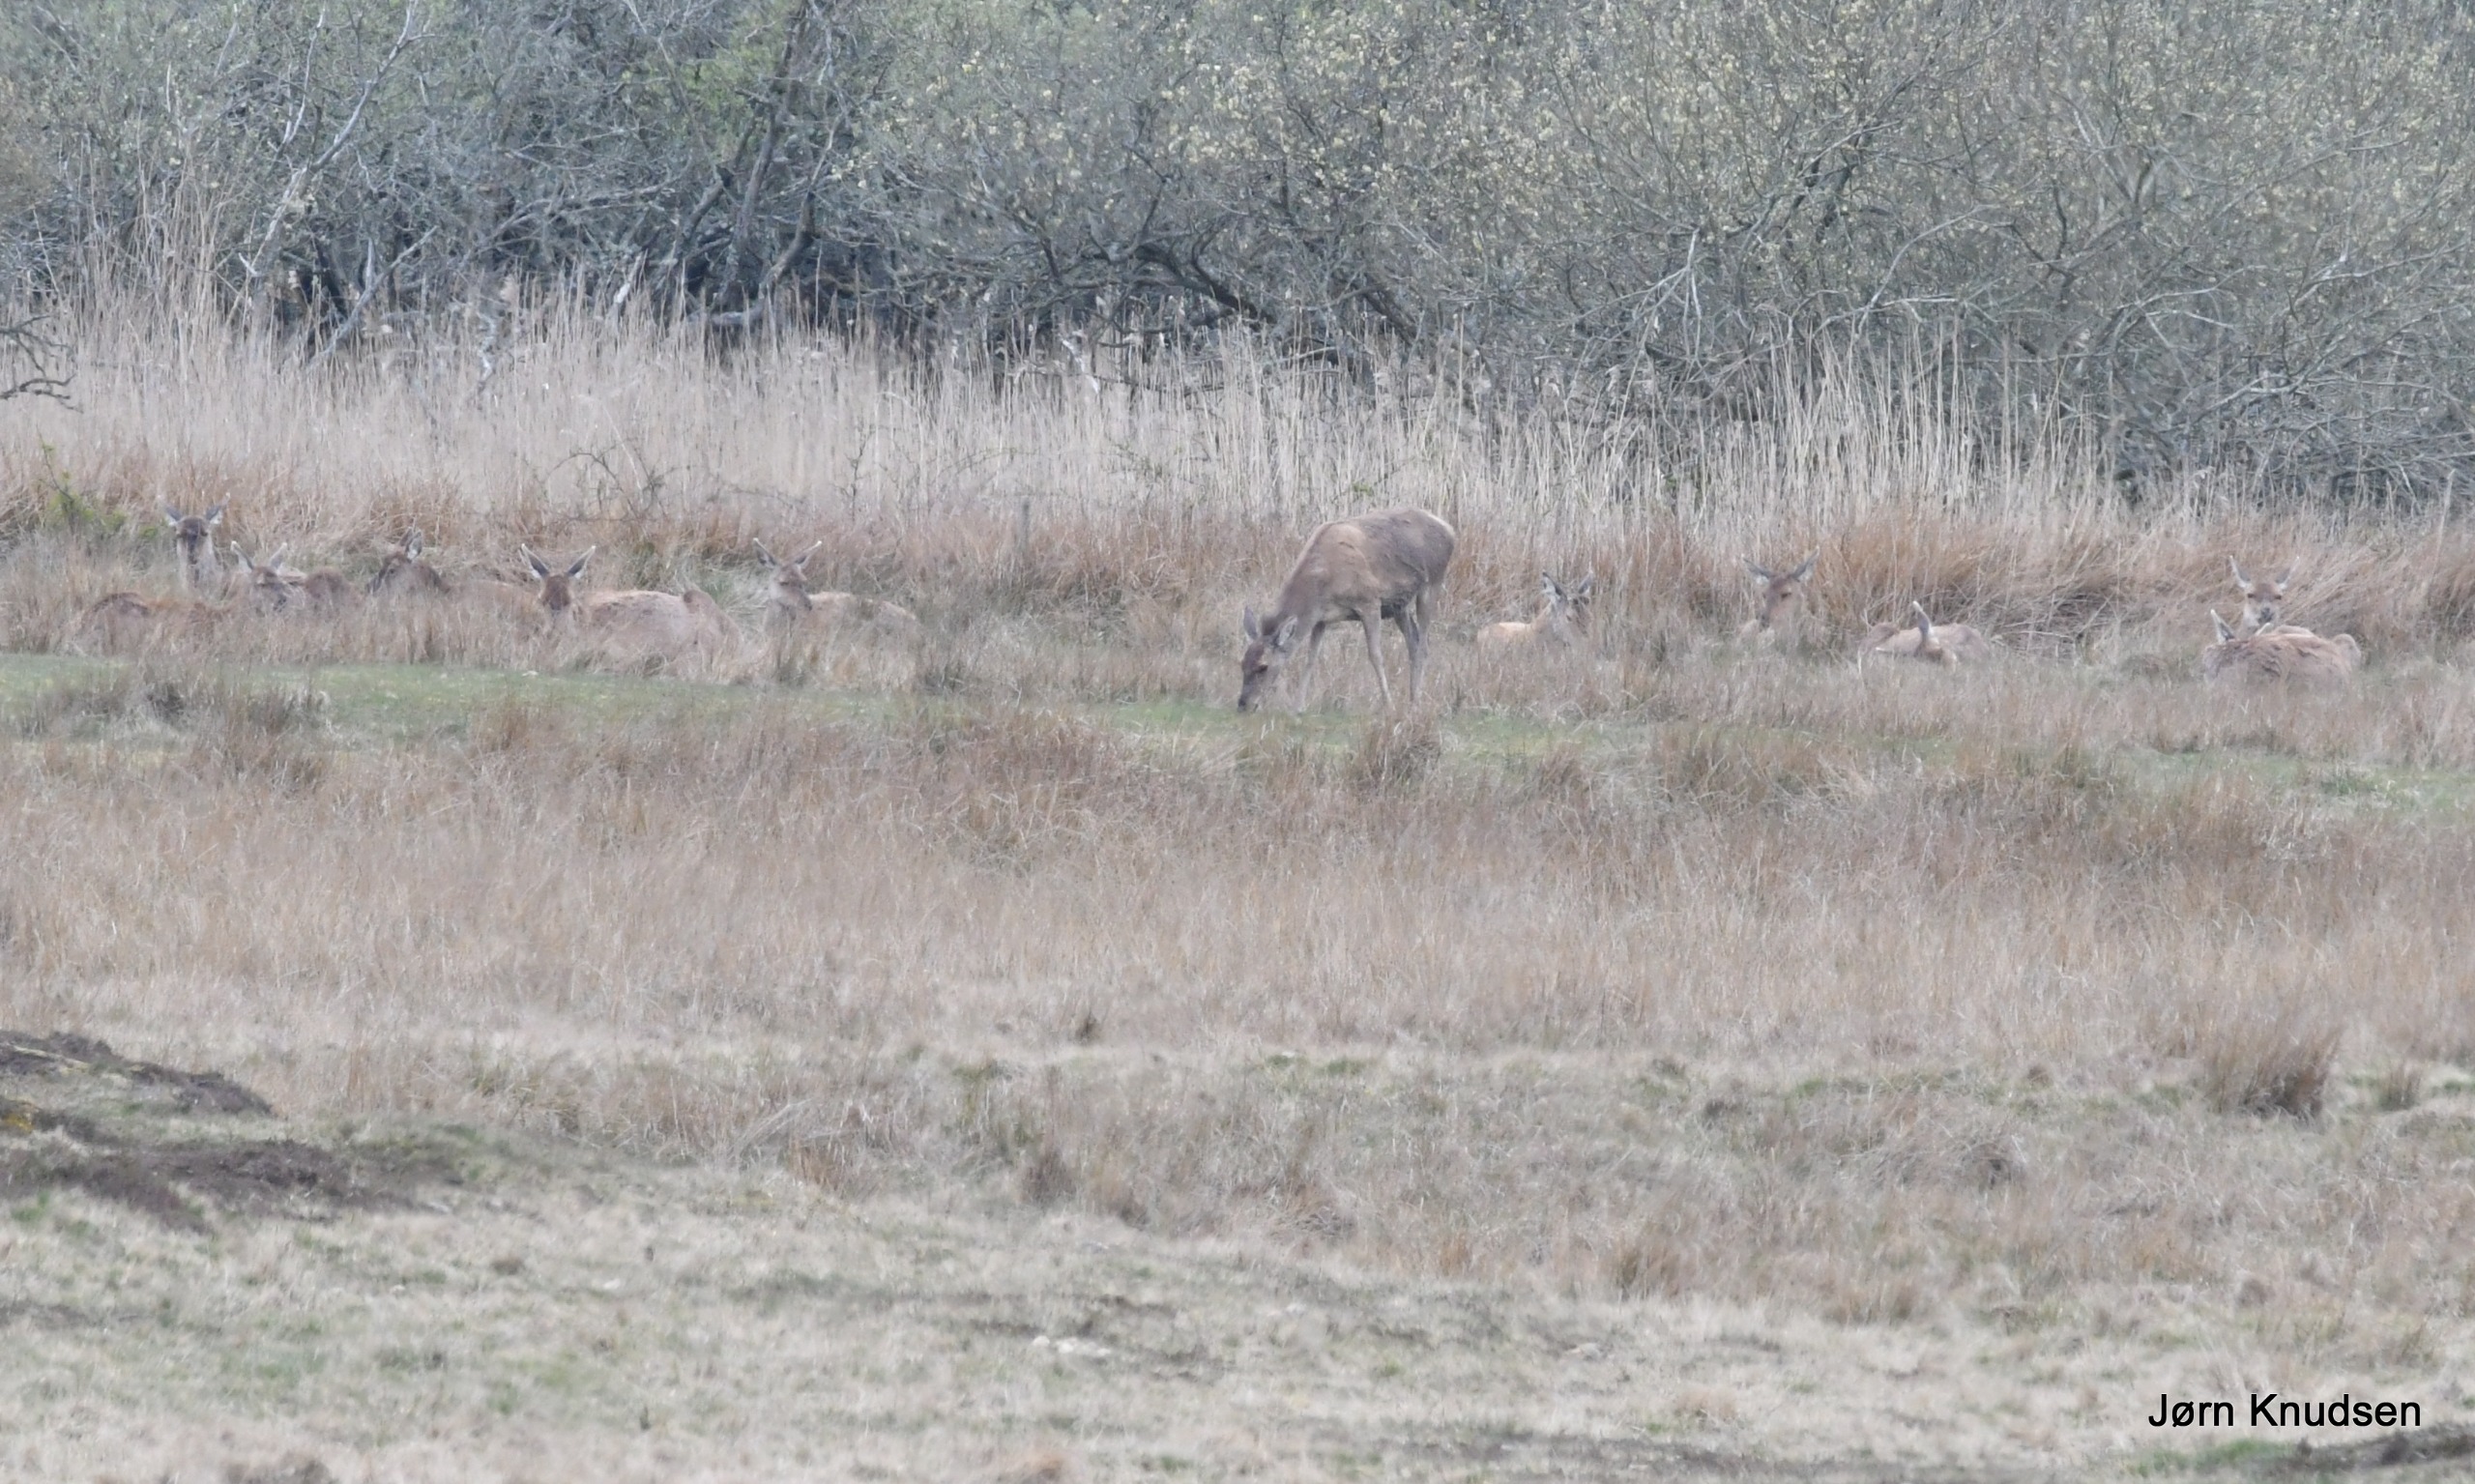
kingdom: Animalia
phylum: Chordata
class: Mammalia
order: Artiodactyla
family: Cervidae
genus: Cervus
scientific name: Cervus elaphus
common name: Krondyr
